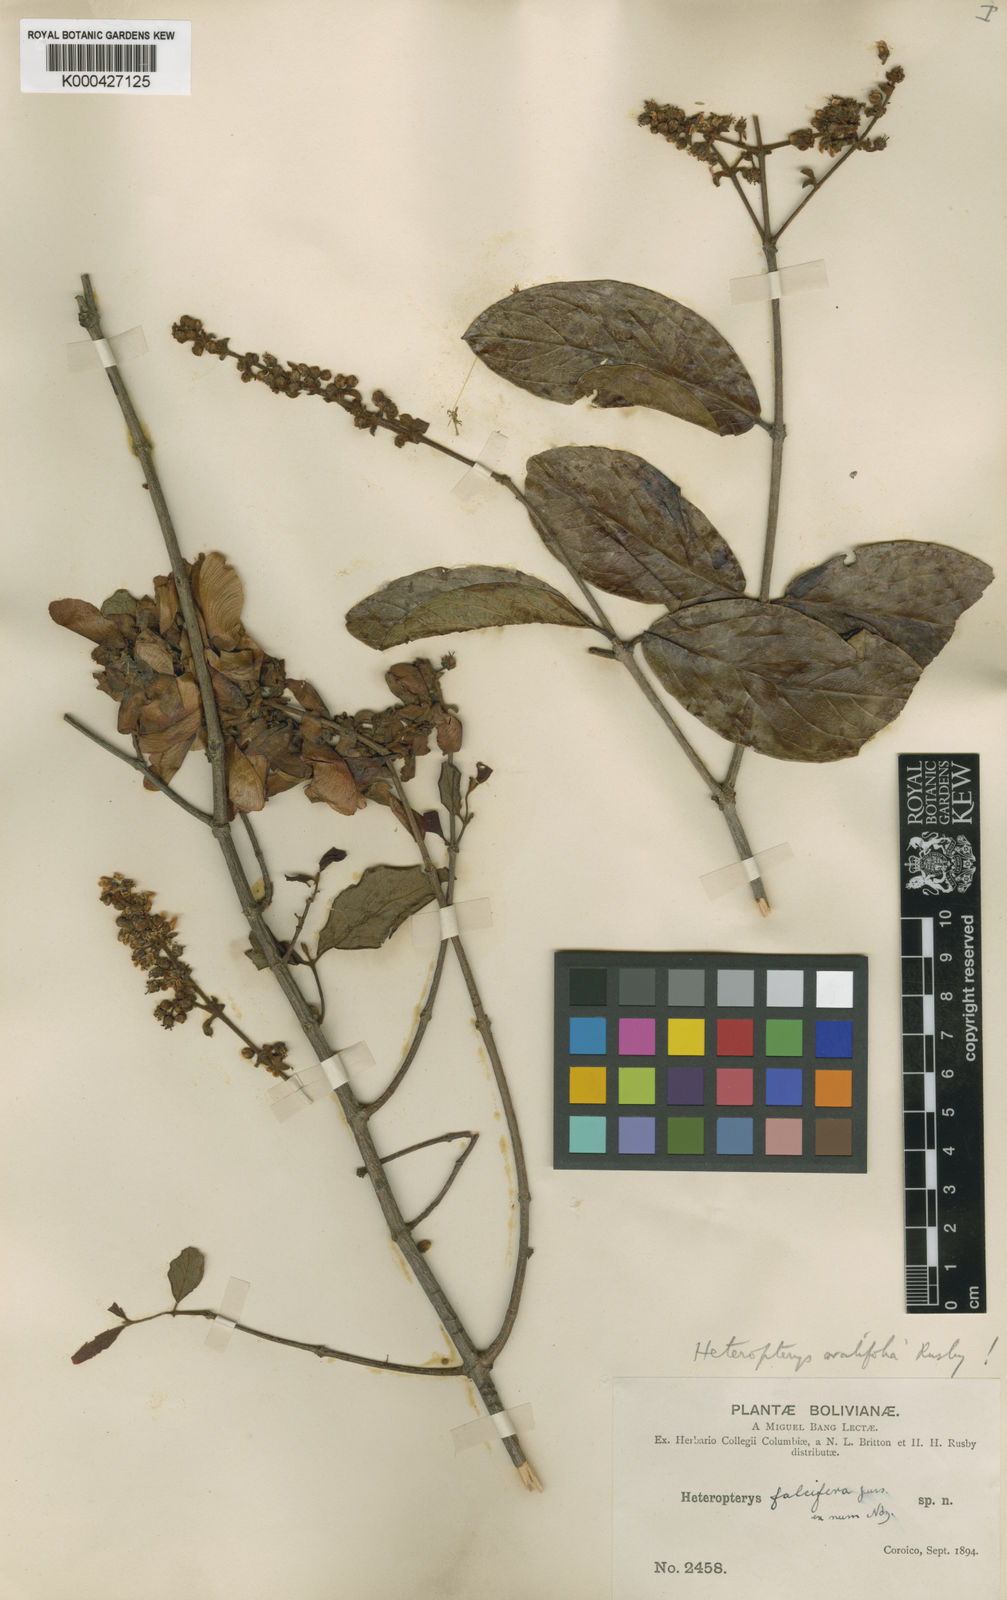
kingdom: Plantae
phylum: Tracheophyta
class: Magnoliopsida
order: Malpighiales
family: Malpighiaceae
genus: Heteropterys
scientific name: Heteropterys falcifera
